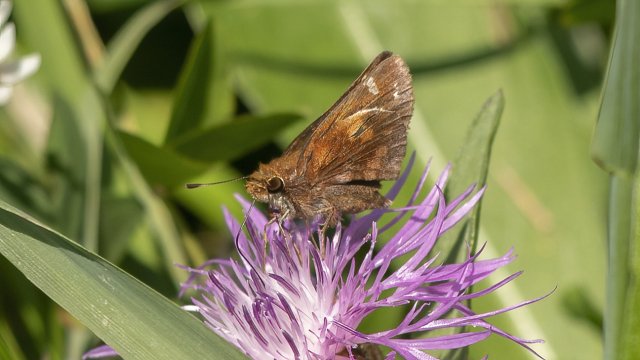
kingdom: Animalia
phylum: Arthropoda
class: Insecta
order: Lepidoptera
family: Hesperiidae
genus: Lon
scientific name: Lon zabulon
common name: Zabulon Skipper
